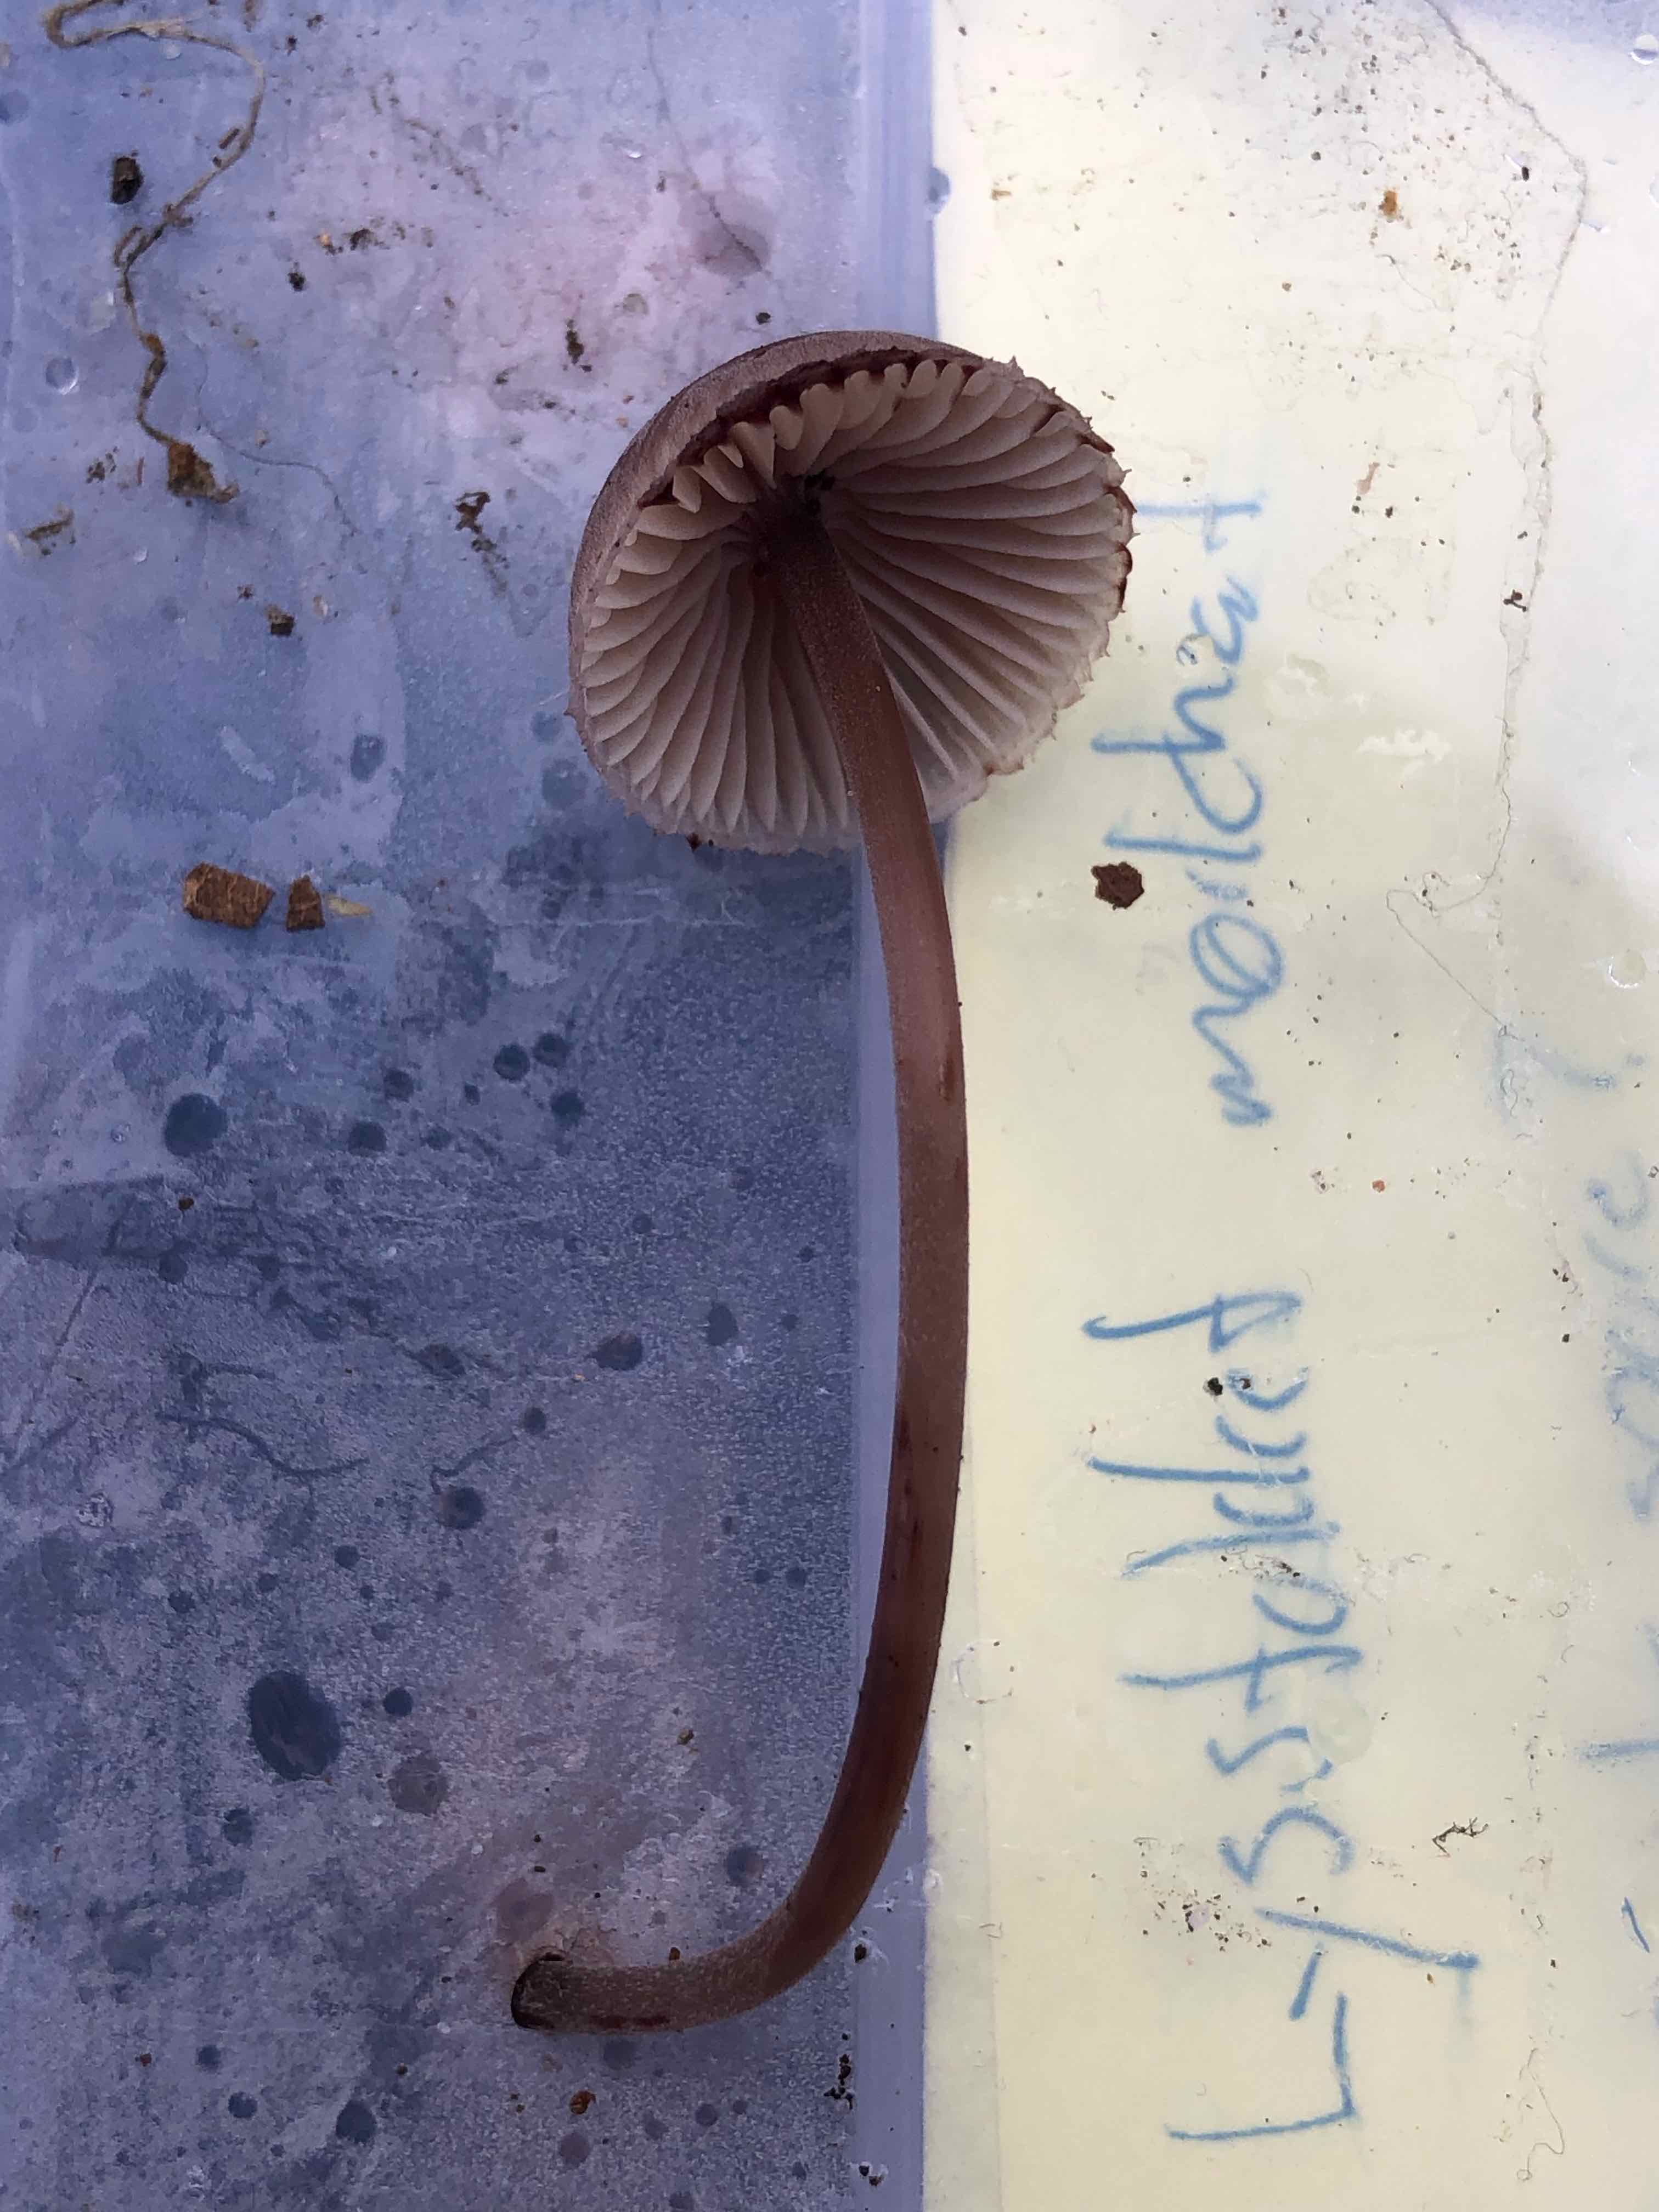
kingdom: Fungi
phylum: Basidiomycota
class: Agaricomycetes
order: Agaricales
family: Mycenaceae
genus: Mycena
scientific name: Mycena haematopus
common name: blødende huesvamp
